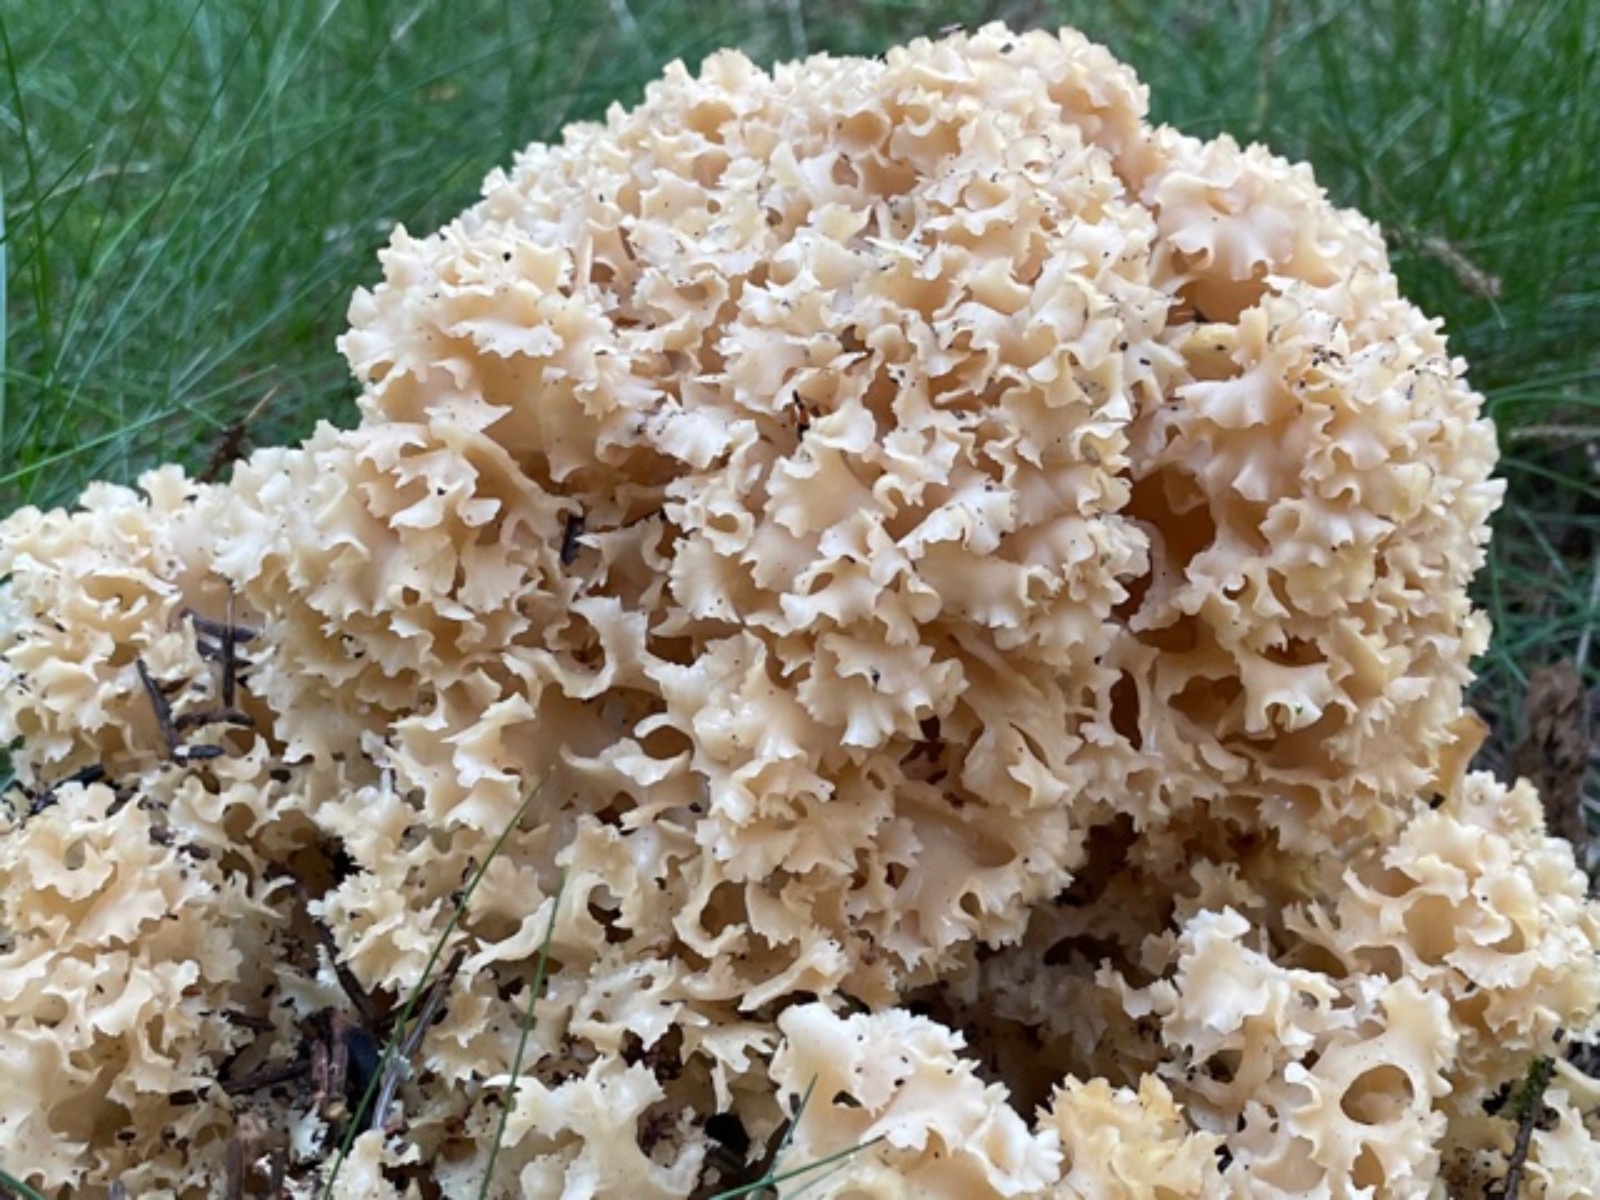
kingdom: Fungi
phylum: Basidiomycota
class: Agaricomycetes
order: Polyporales
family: Sparassidaceae
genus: Sparassis
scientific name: Sparassis crispa
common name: kruset blomkålssvamp
